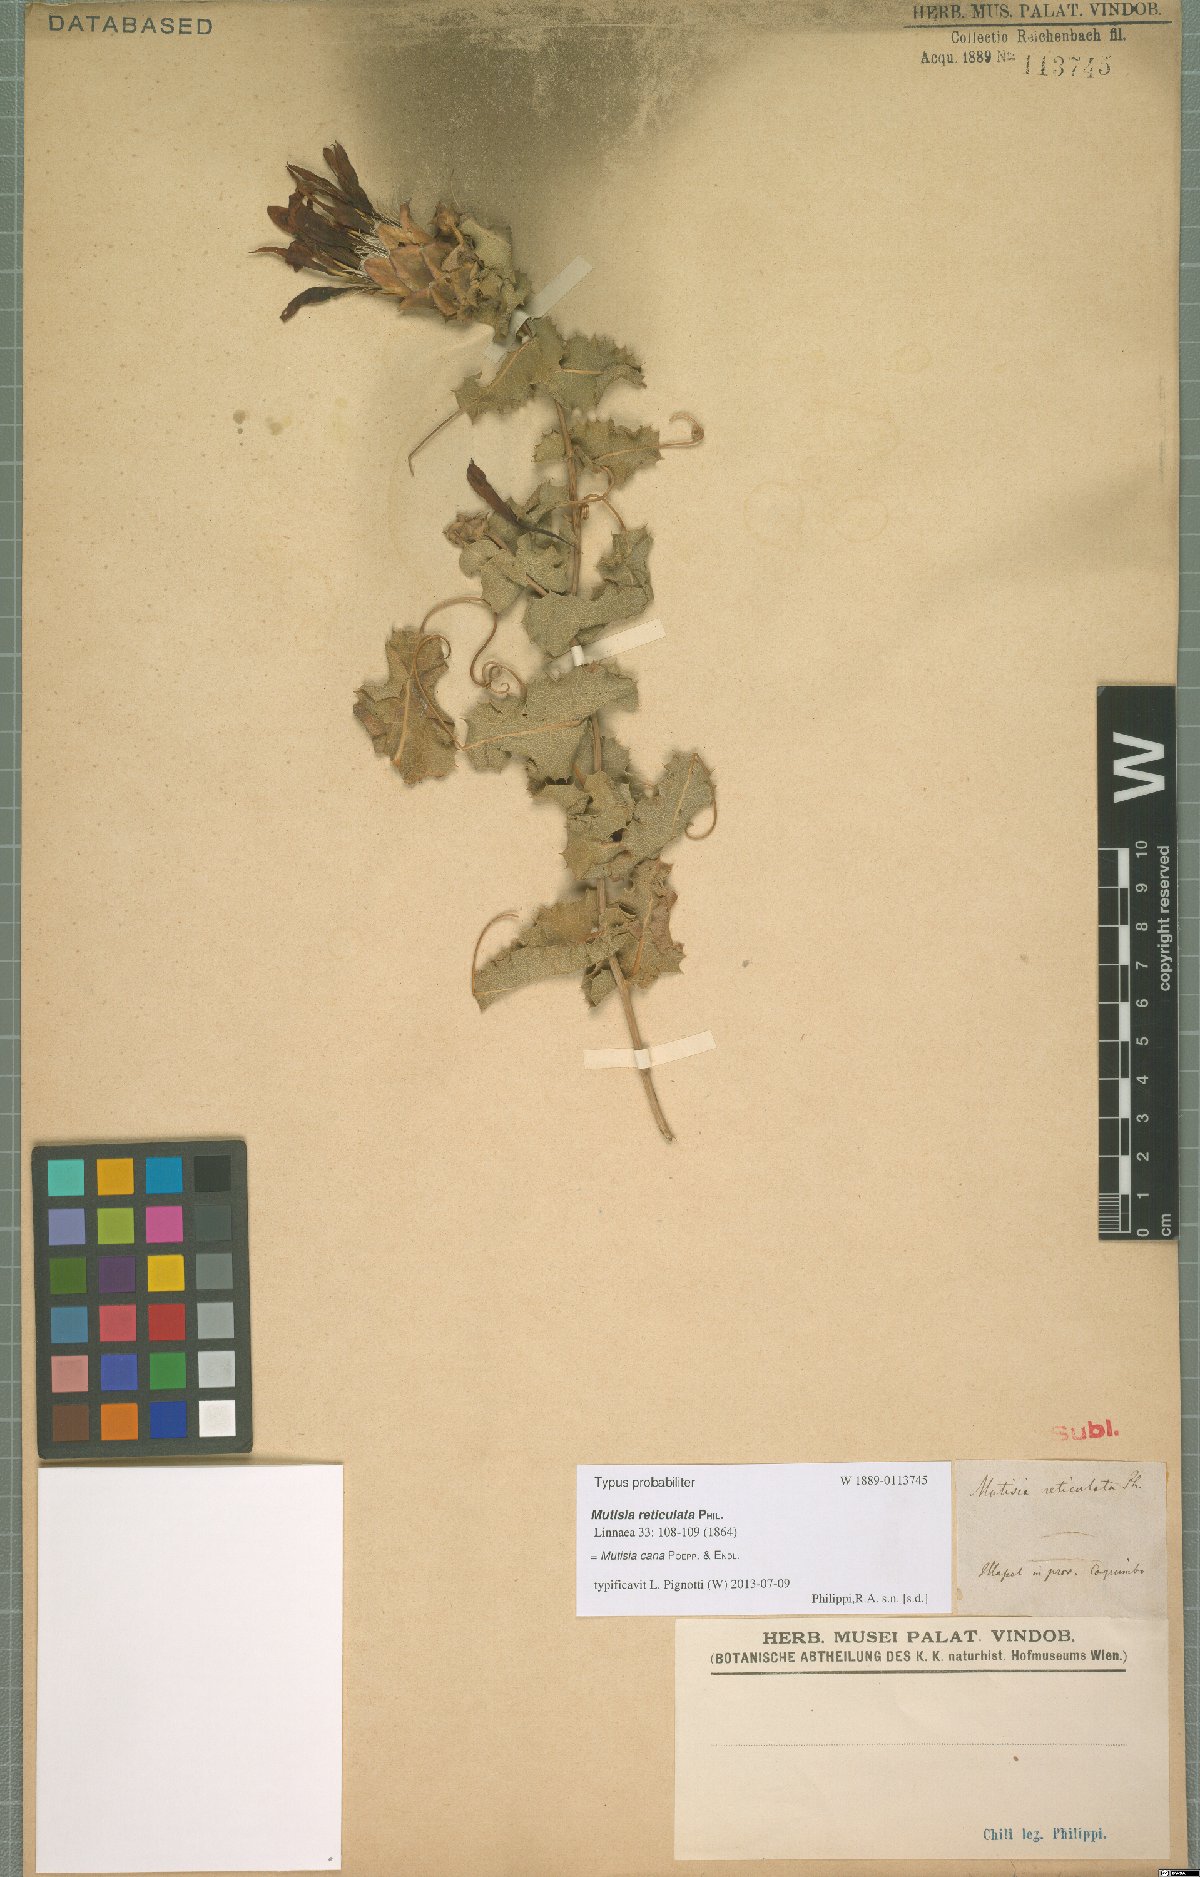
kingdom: Plantae
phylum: Tracheophyta
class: Magnoliopsida
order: Asterales
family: Asteraceae
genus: Mutisia
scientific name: Mutisia cana
